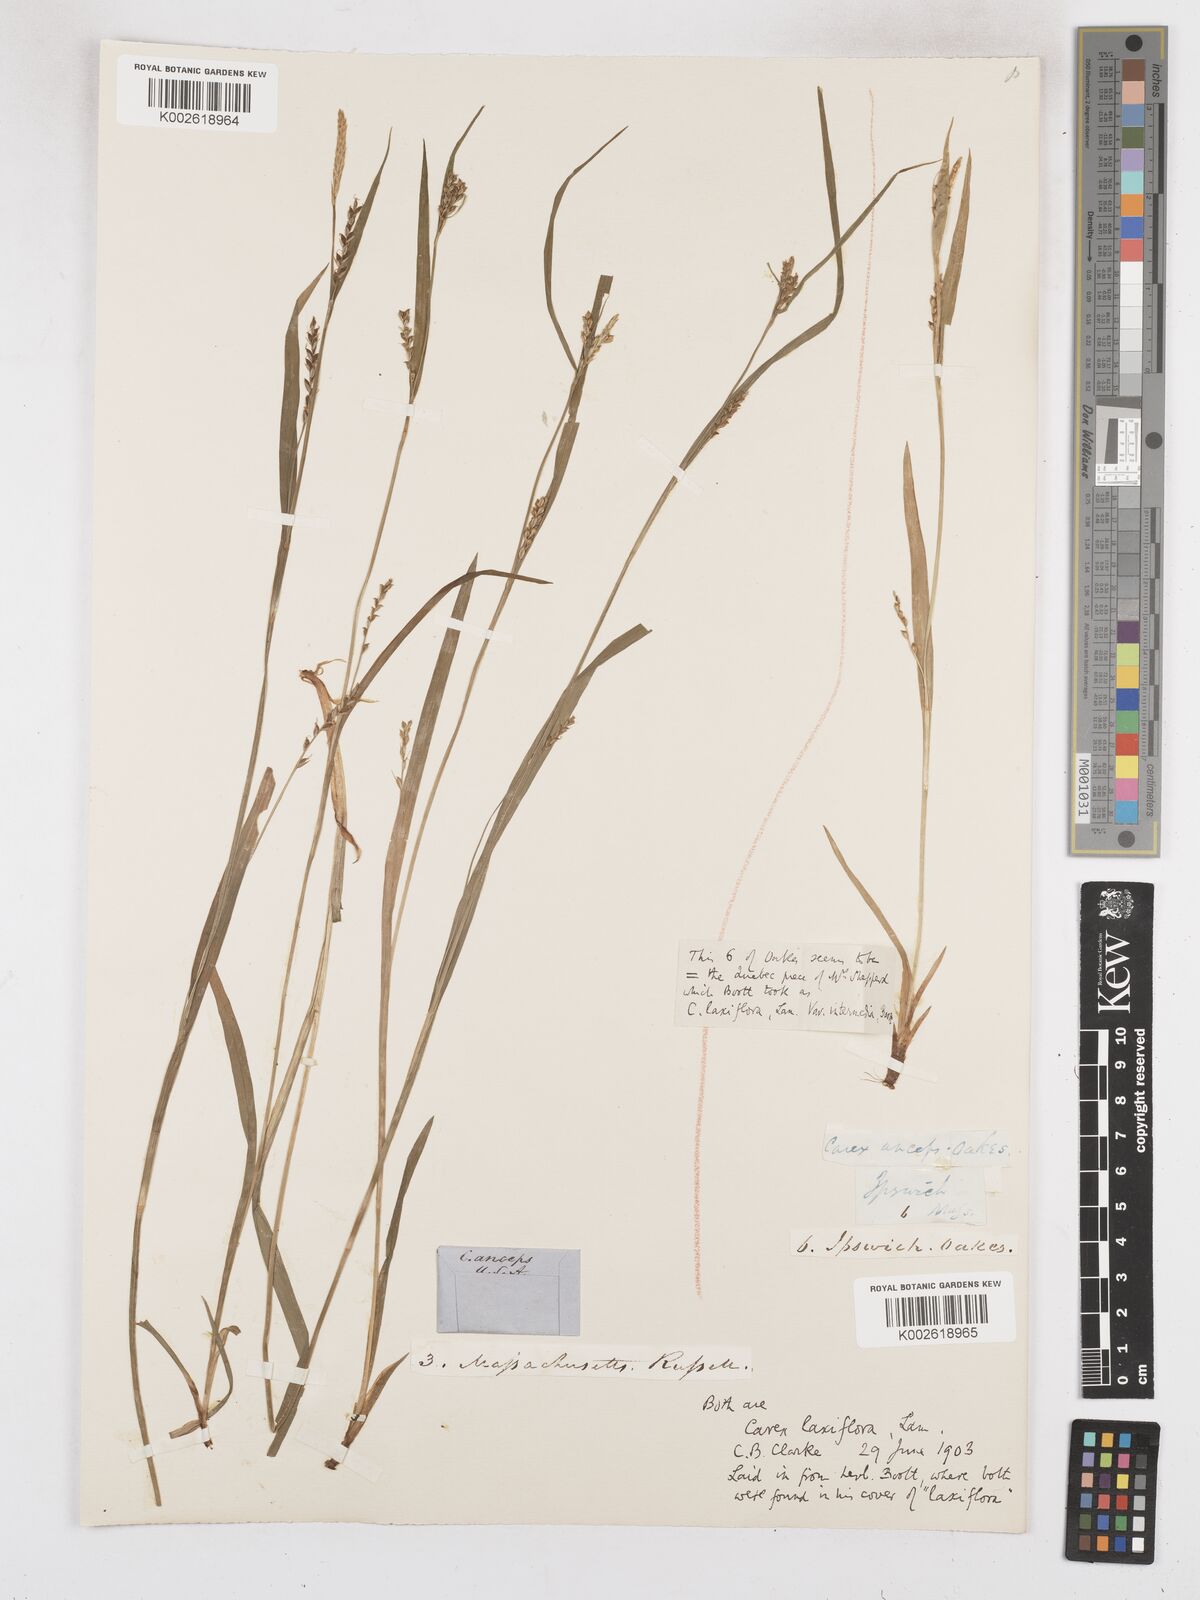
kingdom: Plantae
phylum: Tracheophyta
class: Liliopsida
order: Poales
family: Cyperaceae
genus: Carex
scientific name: Carex laxiflora
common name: Beech wood sedge
